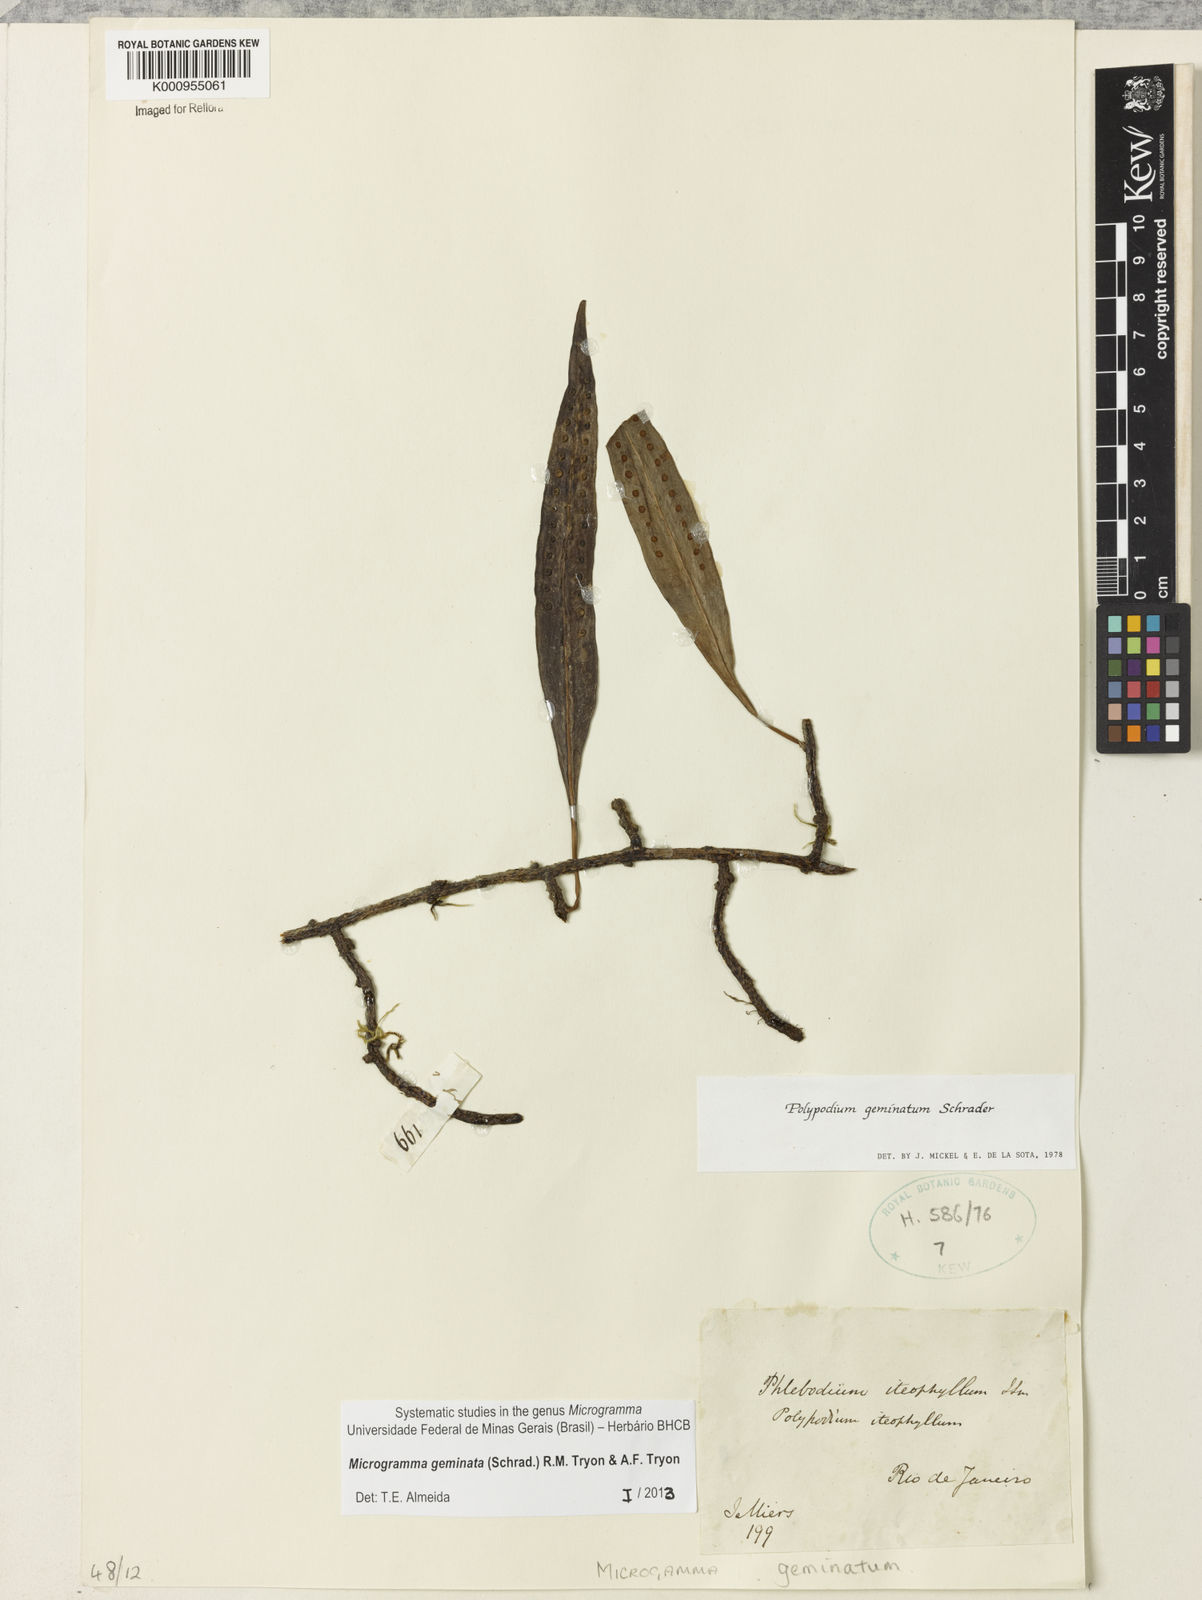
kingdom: Plantae
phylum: Tracheophyta
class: Polypodiopsida
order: Polypodiales
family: Polypodiaceae
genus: Microgramma
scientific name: Microgramma geminata
